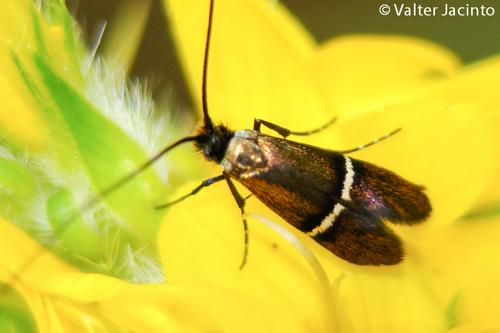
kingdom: Animalia
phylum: Arthropoda
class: Insecta
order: Lepidoptera
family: Gelechiidae
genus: Aproaerema
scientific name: Aproaerema captivella
